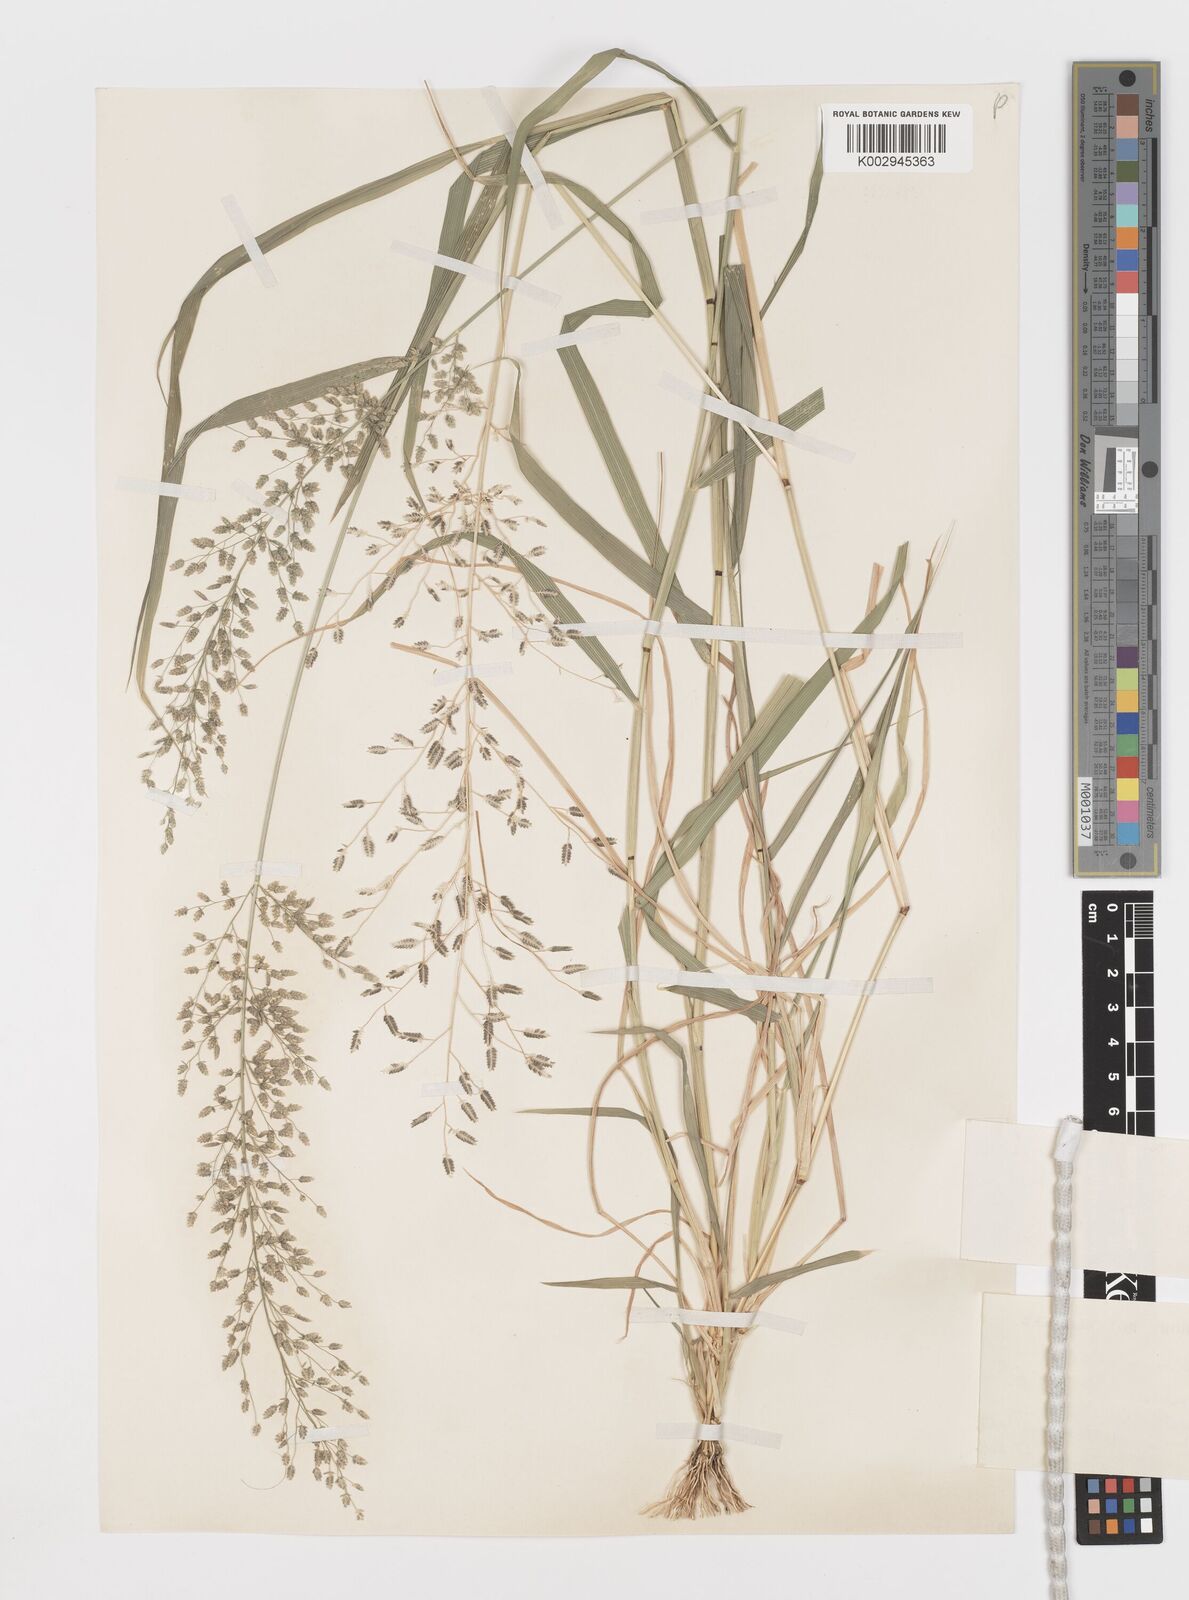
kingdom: Plantae
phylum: Tracheophyta
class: Liliopsida
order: Poales
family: Poaceae
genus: Eragrostis
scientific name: Eragrostis cilianensis
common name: Stinkgrass
